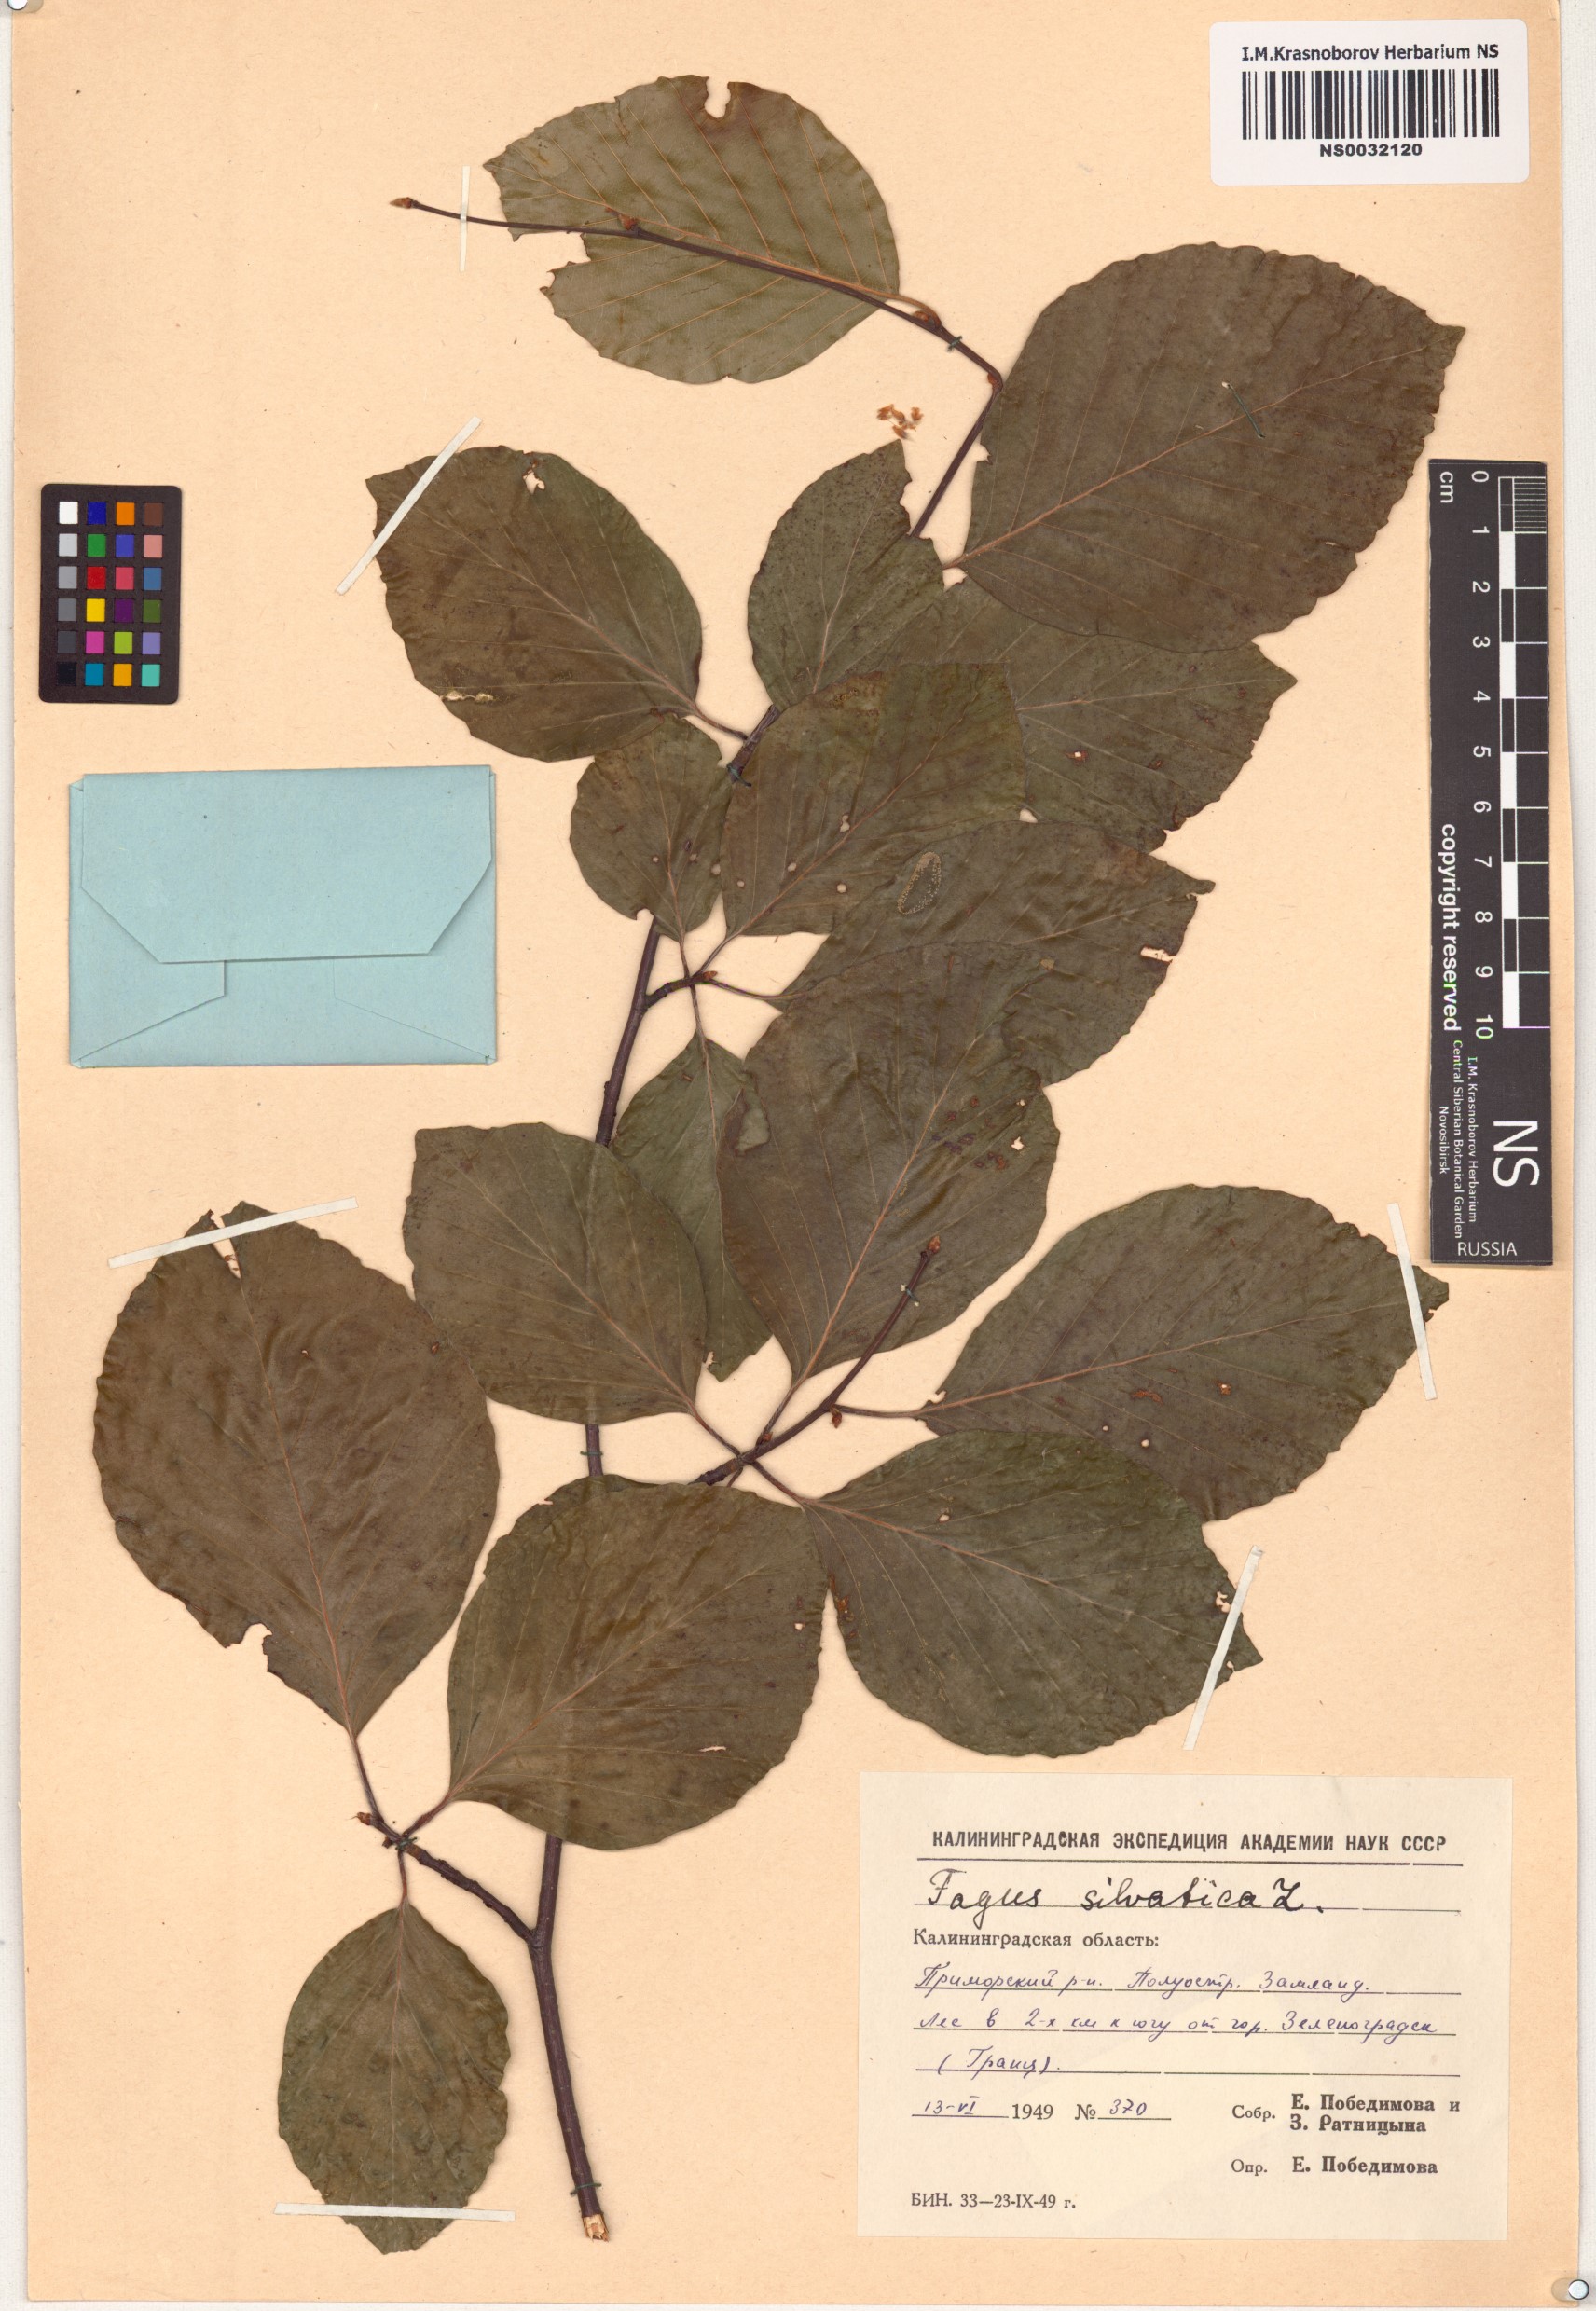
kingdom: Plantae
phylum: Tracheophyta
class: Magnoliopsida
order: Fagales
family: Fagaceae
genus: Fagus
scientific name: Fagus sylvatica
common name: Beech
